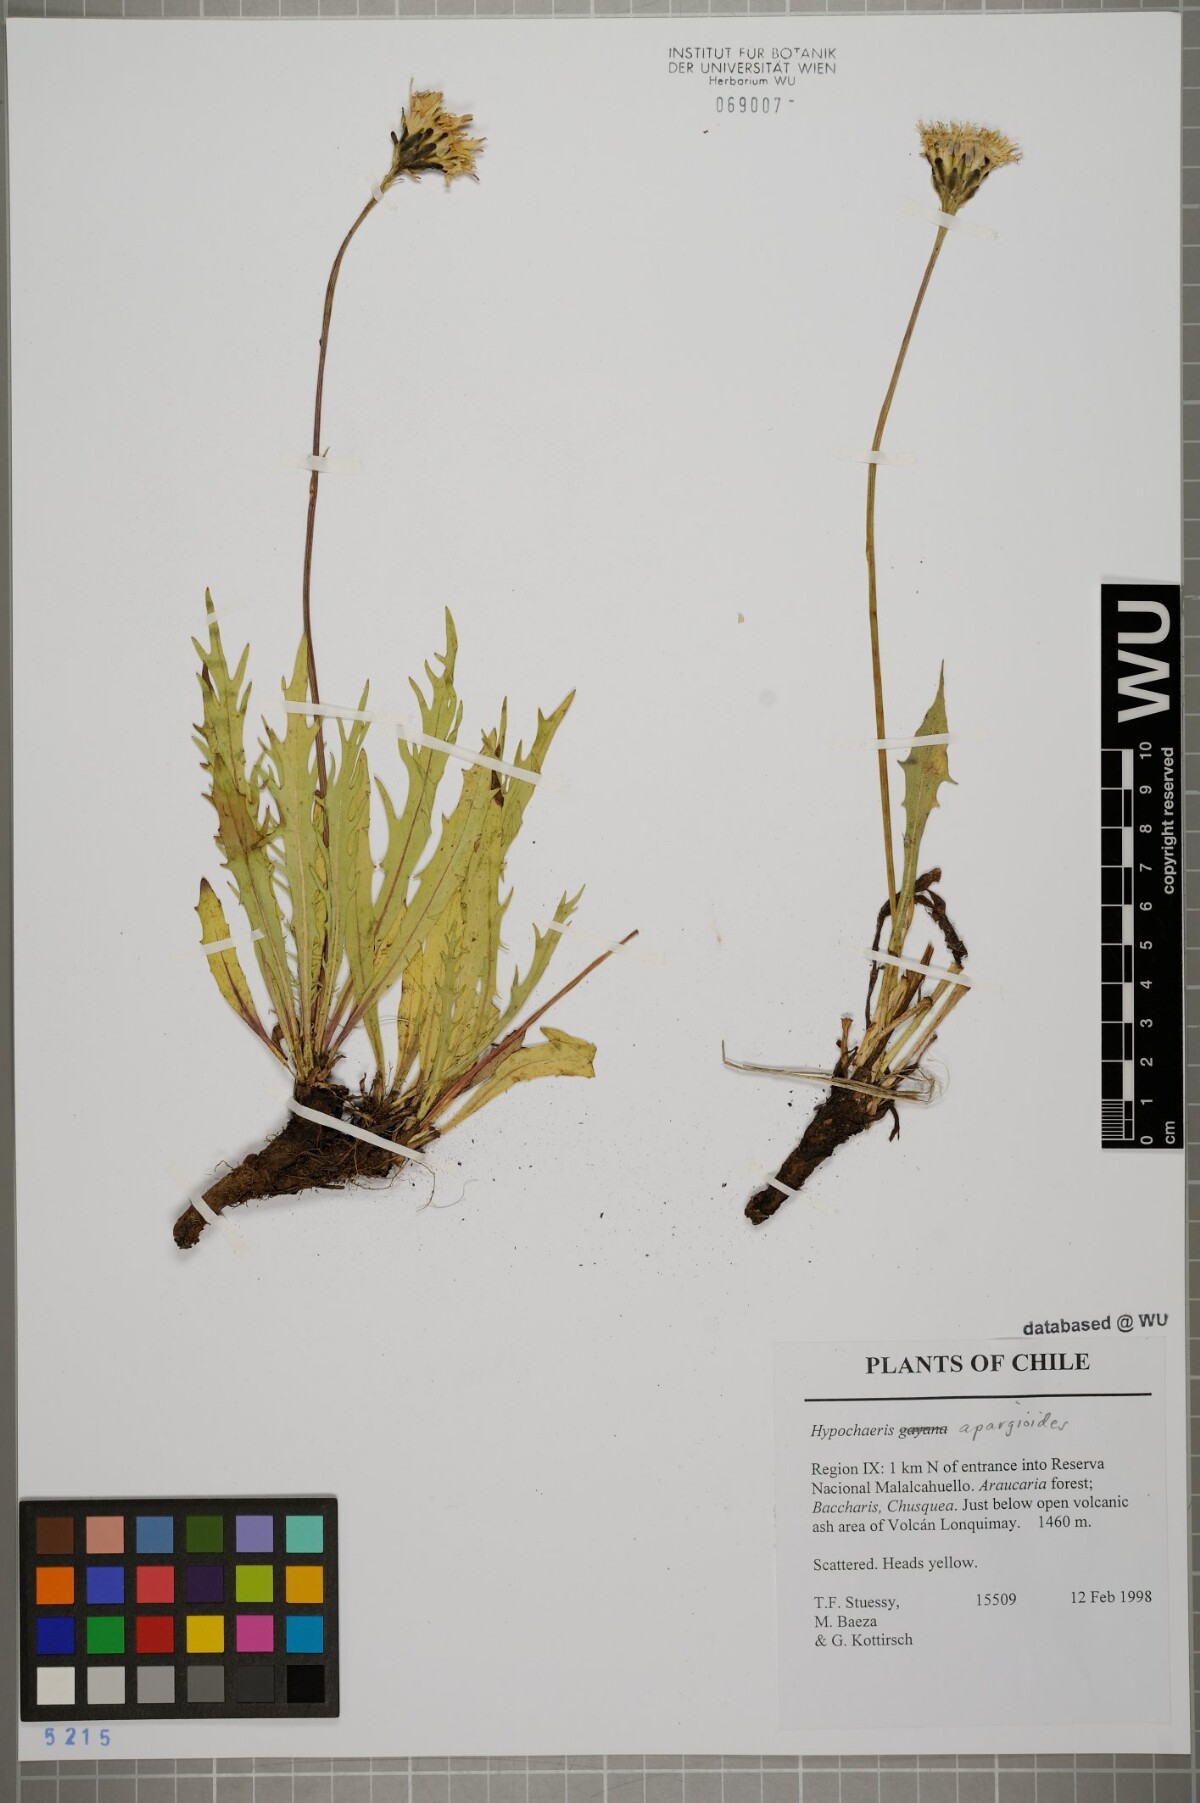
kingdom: Plantae
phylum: Tracheophyta
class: Magnoliopsida
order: Asterales
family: Asteraceae
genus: Hypochaeris
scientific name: Hypochaeris apargioides
